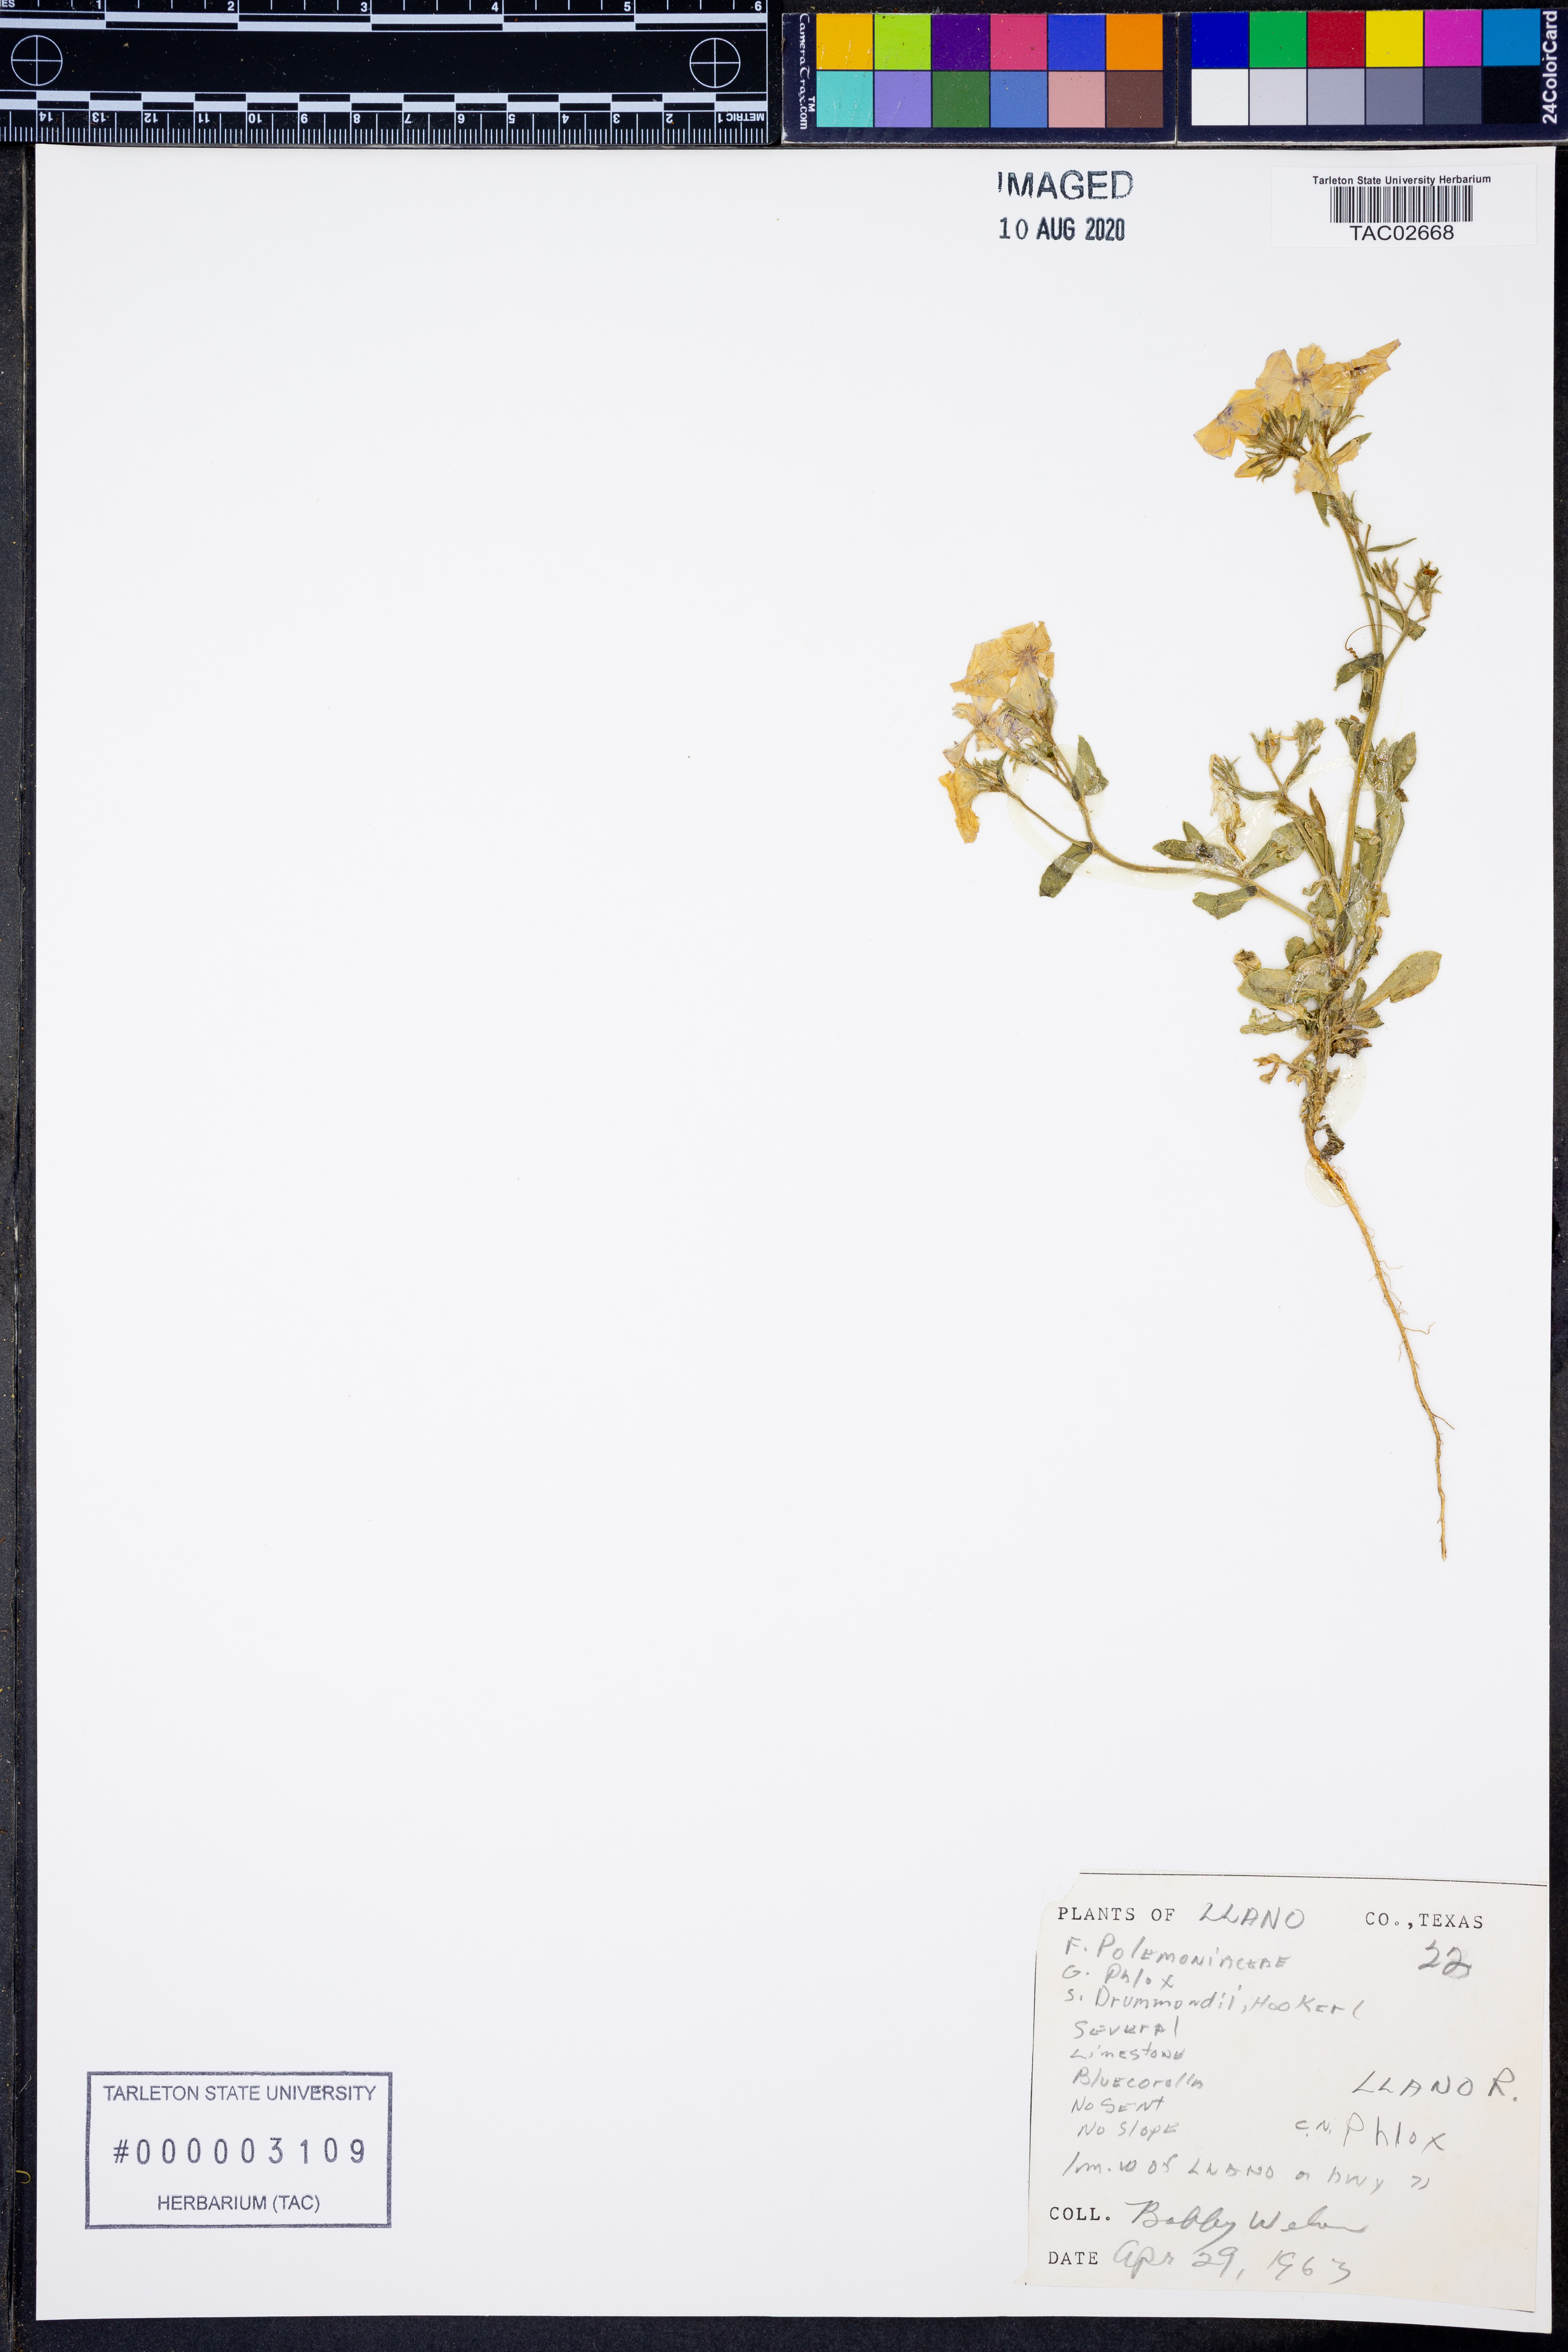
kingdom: Plantae
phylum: Tracheophyta
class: Magnoliopsida
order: Ericales
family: Polemoniaceae
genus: Phlox
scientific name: Phlox drummondii
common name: Drummond's phlox
